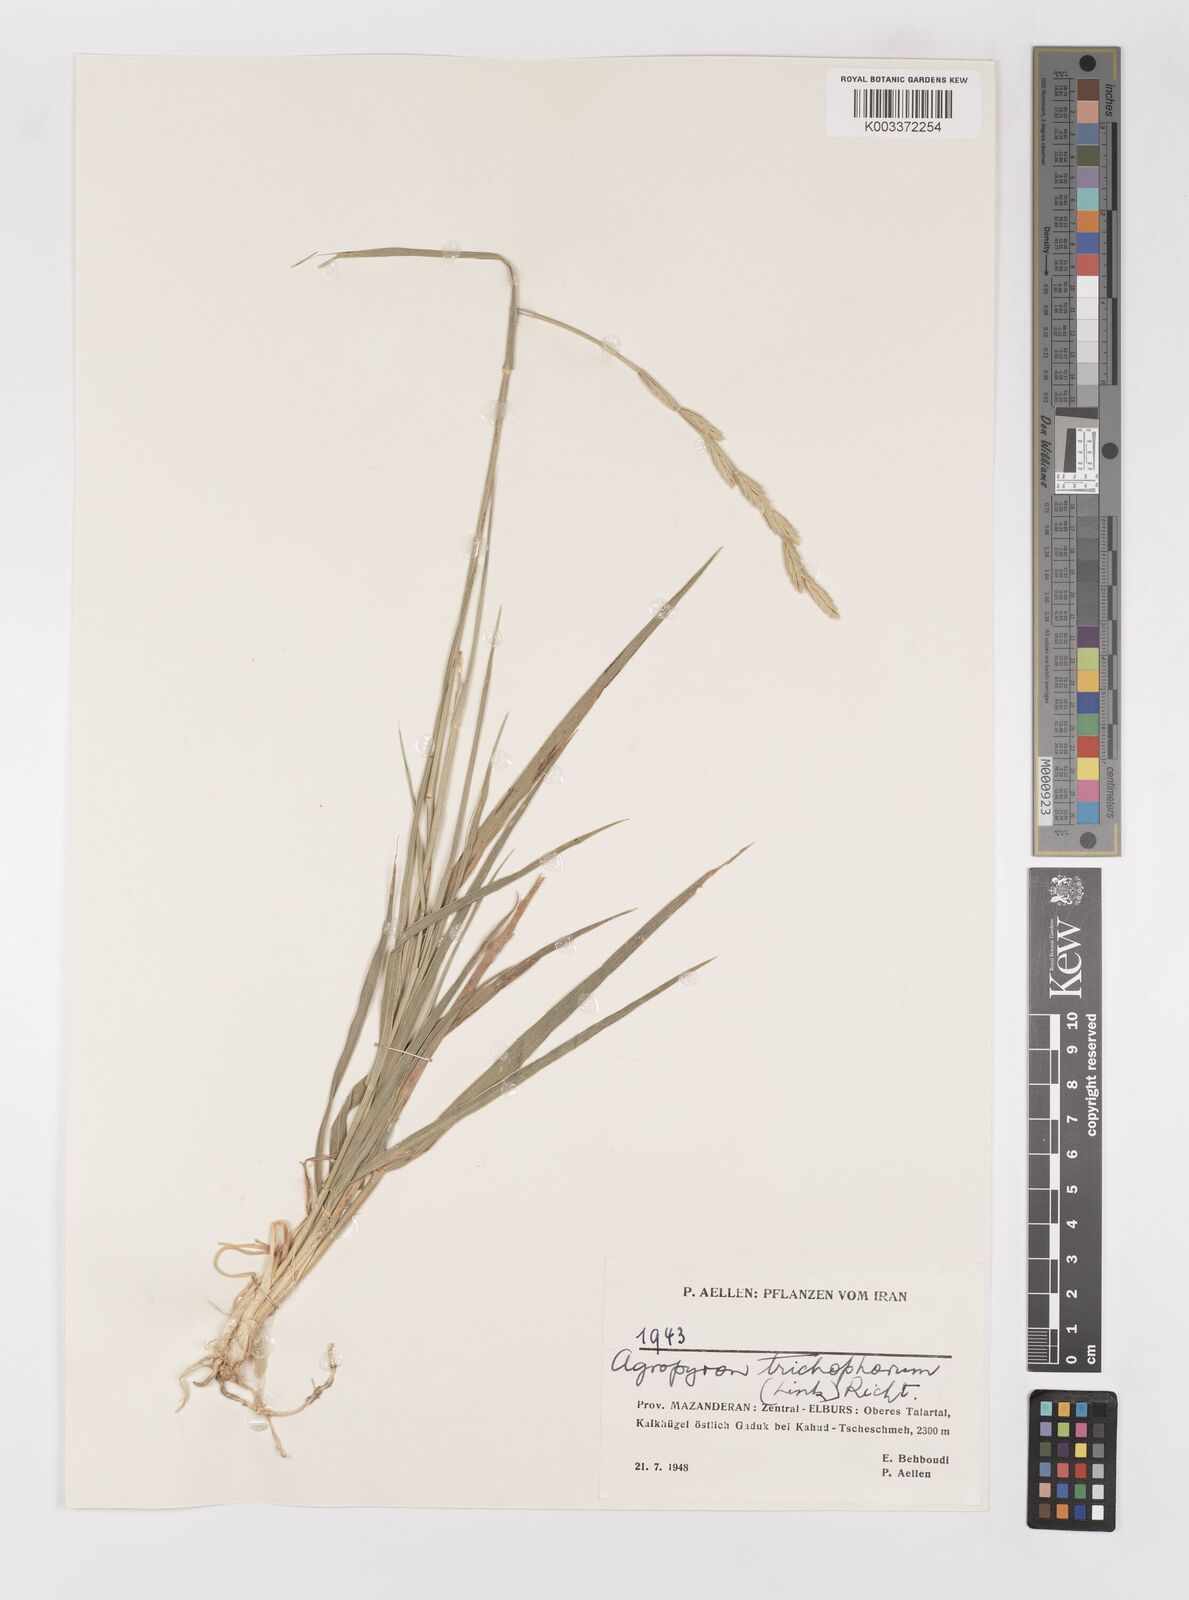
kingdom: Plantae
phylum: Tracheophyta
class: Liliopsida
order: Poales
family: Poaceae
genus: Thinopyrum
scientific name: Thinopyrum intermedium
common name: Intermediate wheatgrass
